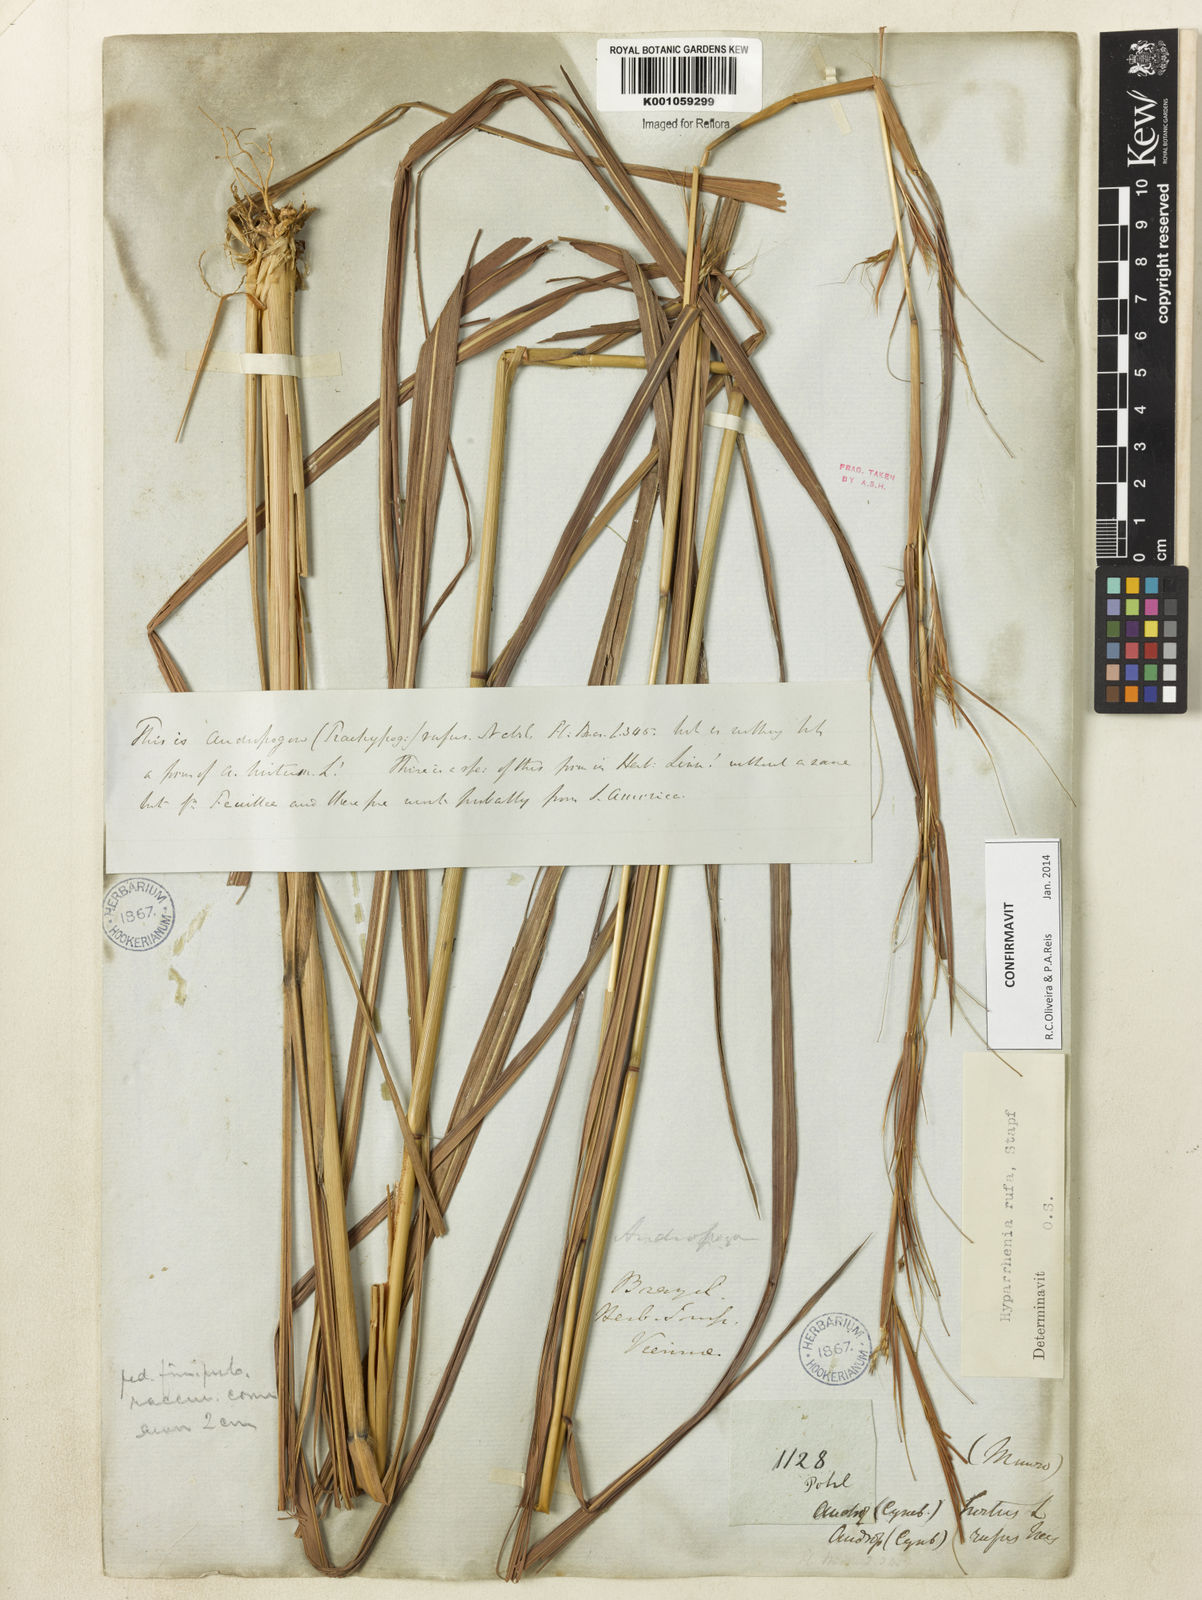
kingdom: Plantae
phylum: Tracheophyta
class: Liliopsida
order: Poales
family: Poaceae
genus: Hyparrhenia
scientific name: Hyparrhenia rufa
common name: Jaraguagrass
